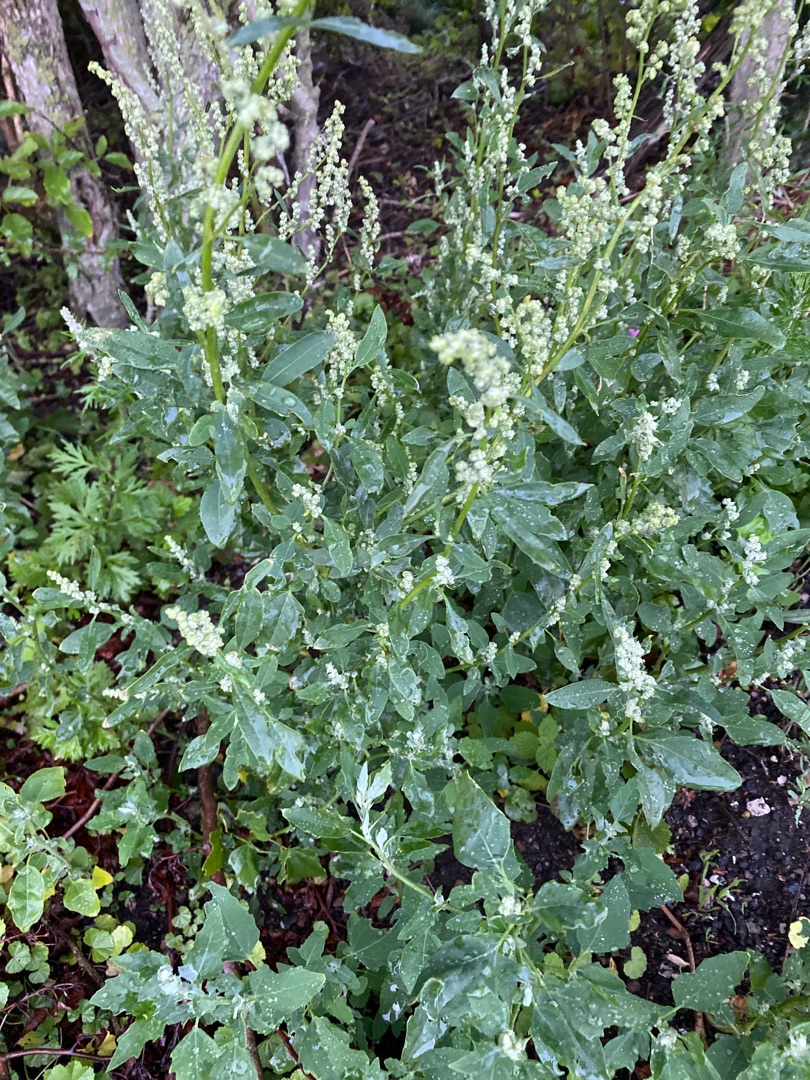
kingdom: Plantae
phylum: Tracheophyta
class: Magnoliopsida
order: Caryophyllales
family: Amaranthaceae
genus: Chenopodium
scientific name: Chenopodium album
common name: Hvidmelet gåsefod
